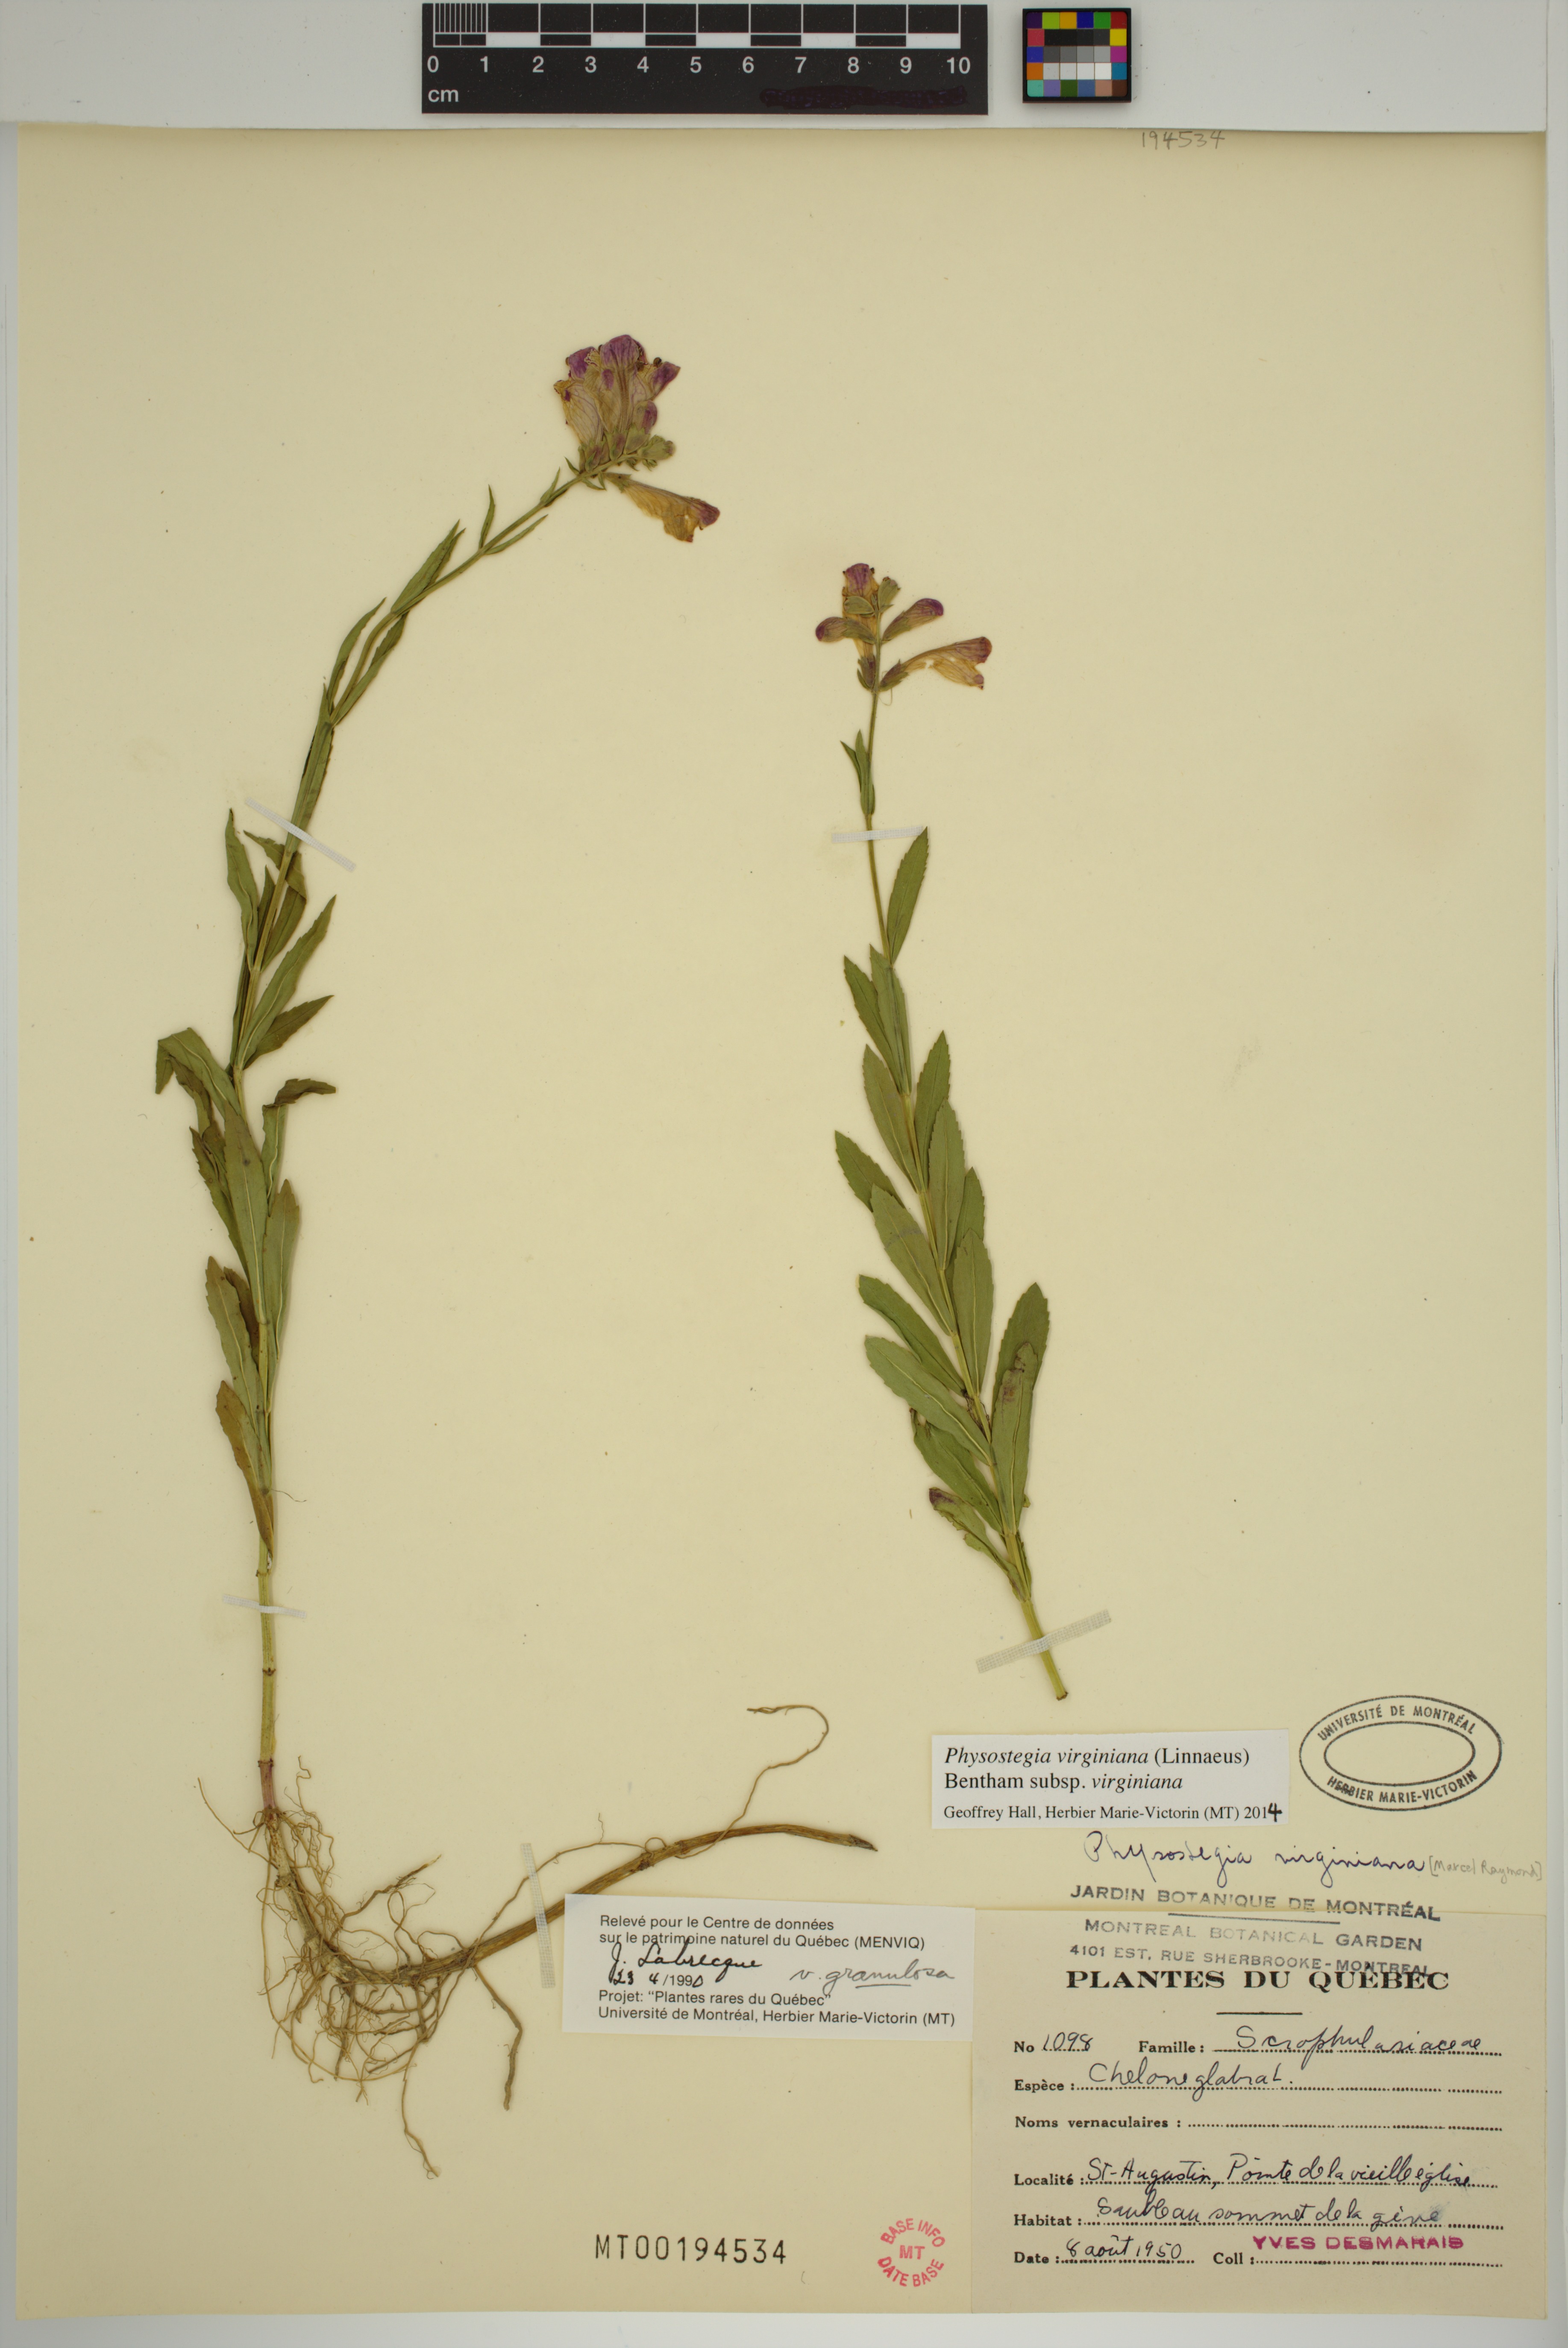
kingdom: Plantae
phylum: Tracheophyta
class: Magnoliopsida
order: Lamiales
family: Lamiaceae
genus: Physostegia
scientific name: Physostegia virginiana
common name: Obedient-plant
